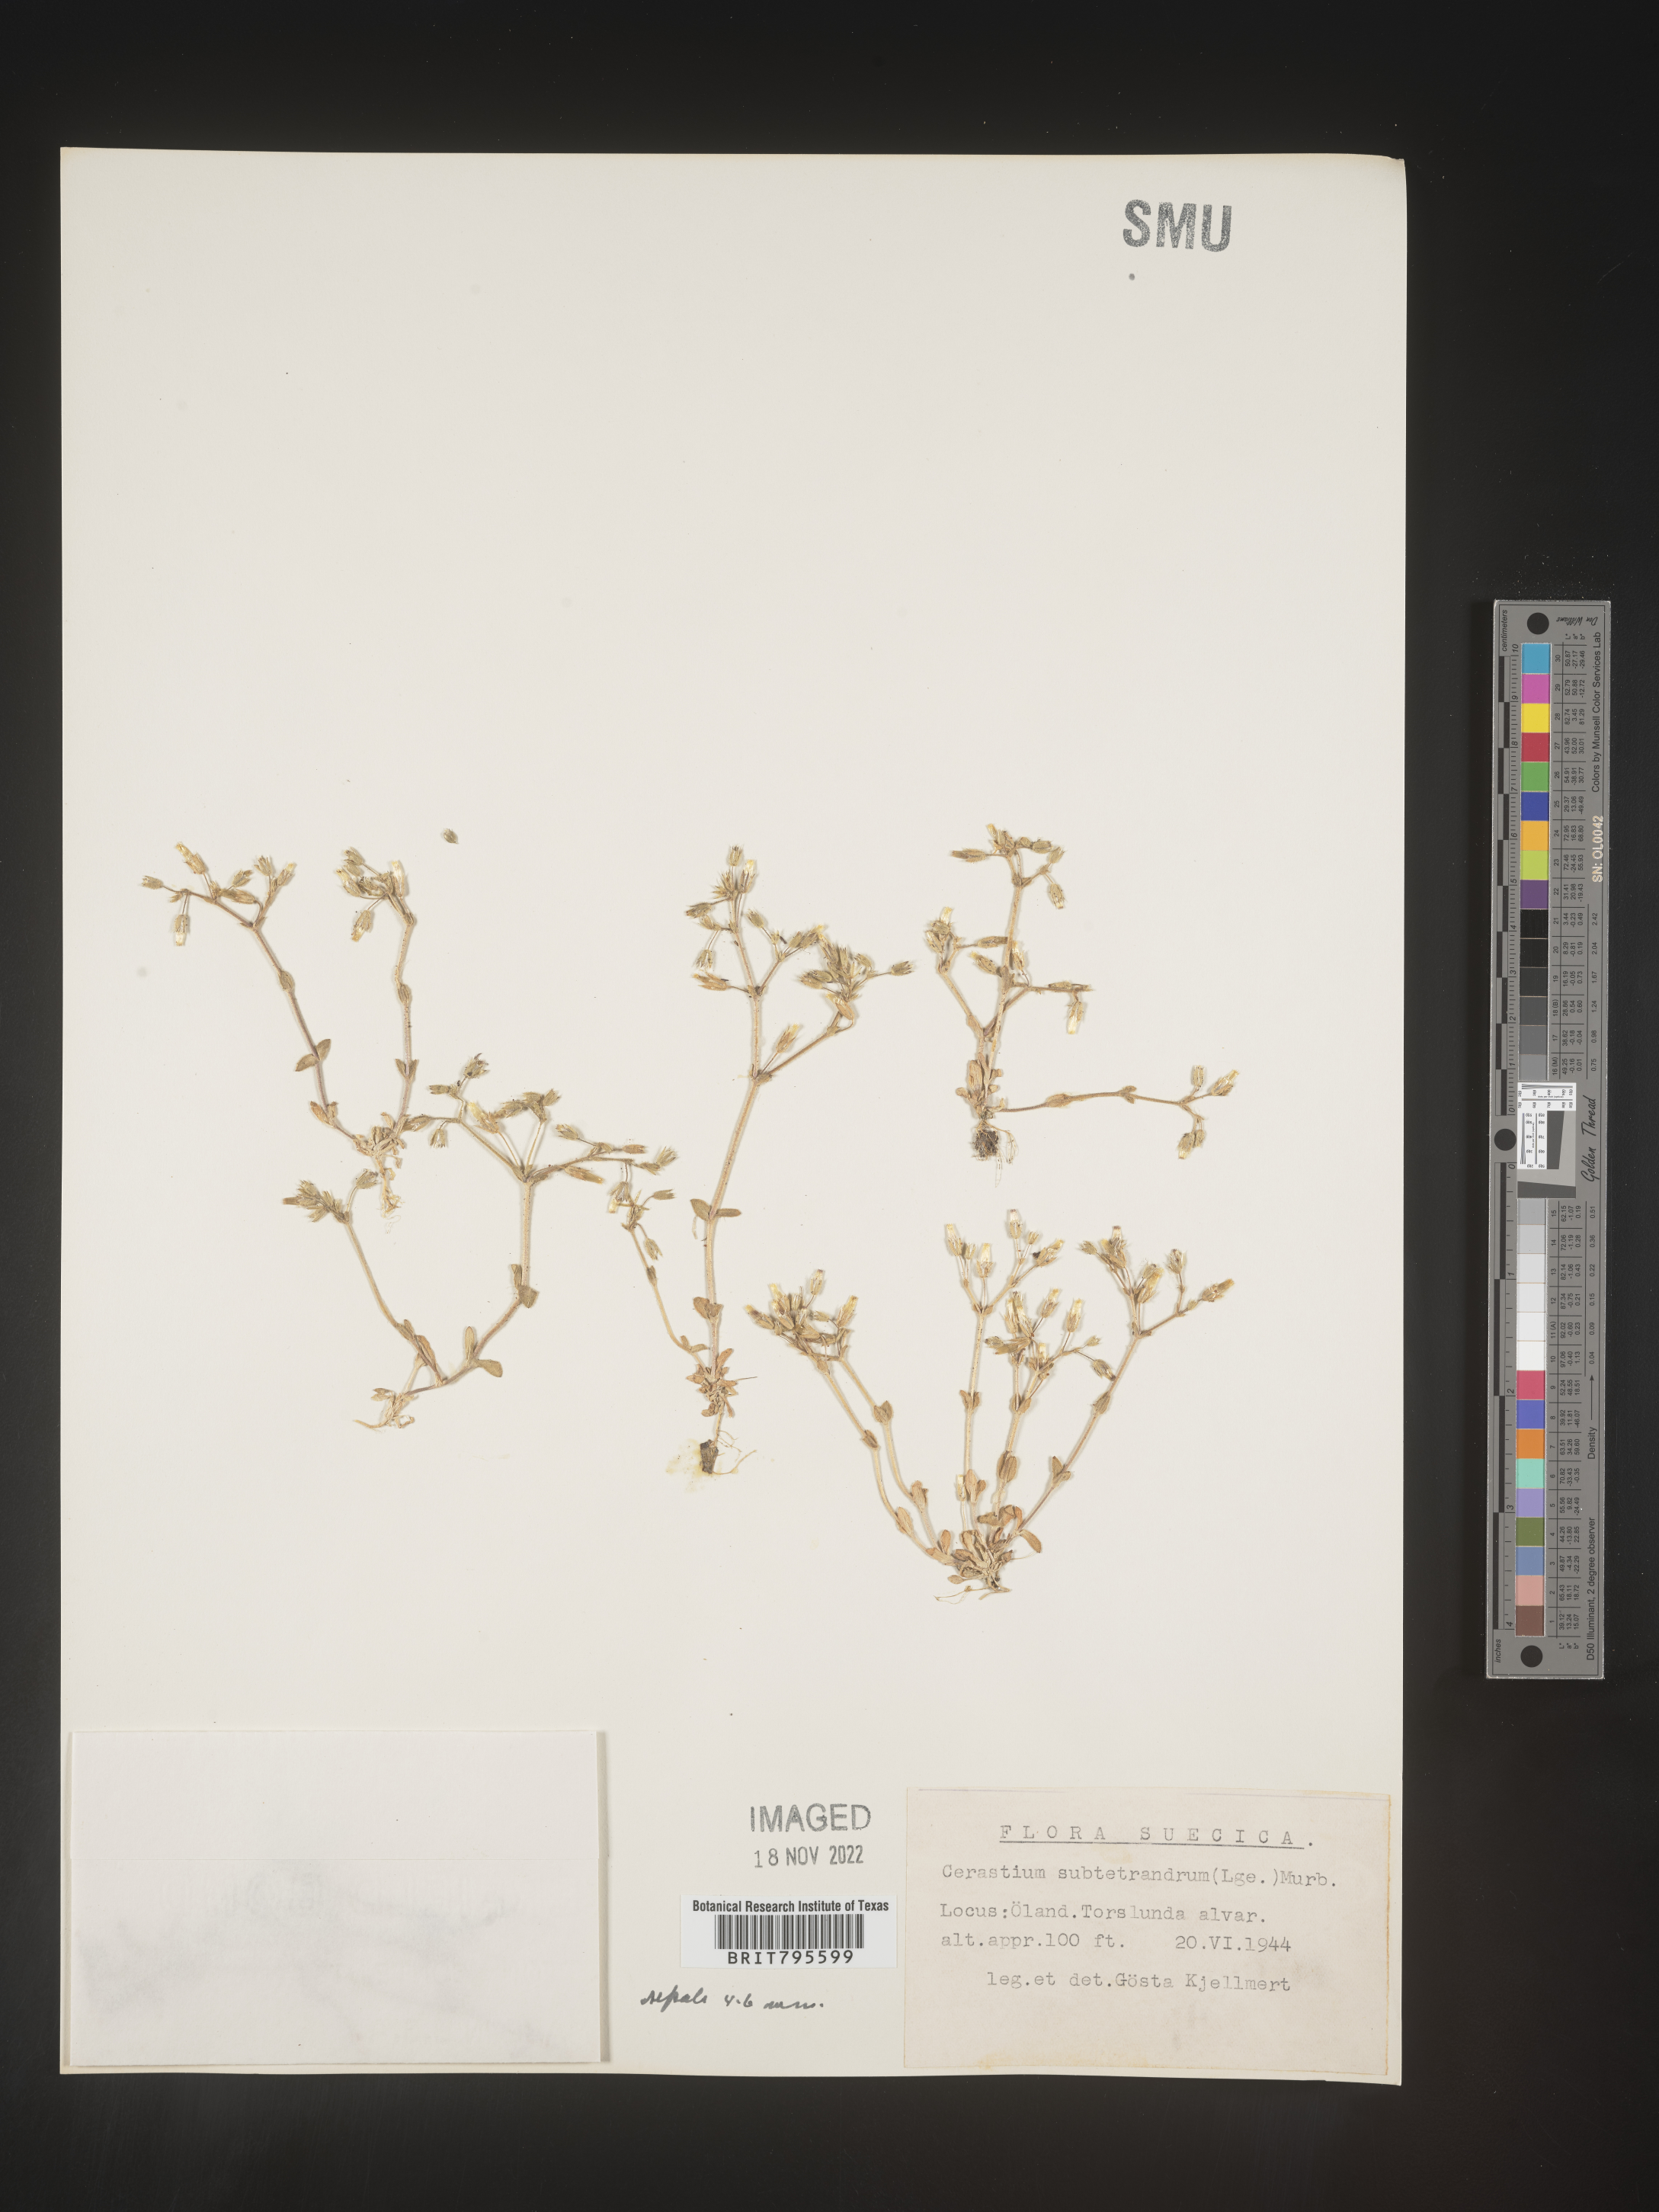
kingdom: Plantae
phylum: Tracheophyta
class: Magnoliopsida
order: Caryophyllales
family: Caryophyllaceae
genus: Cerastium
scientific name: Cerastium
